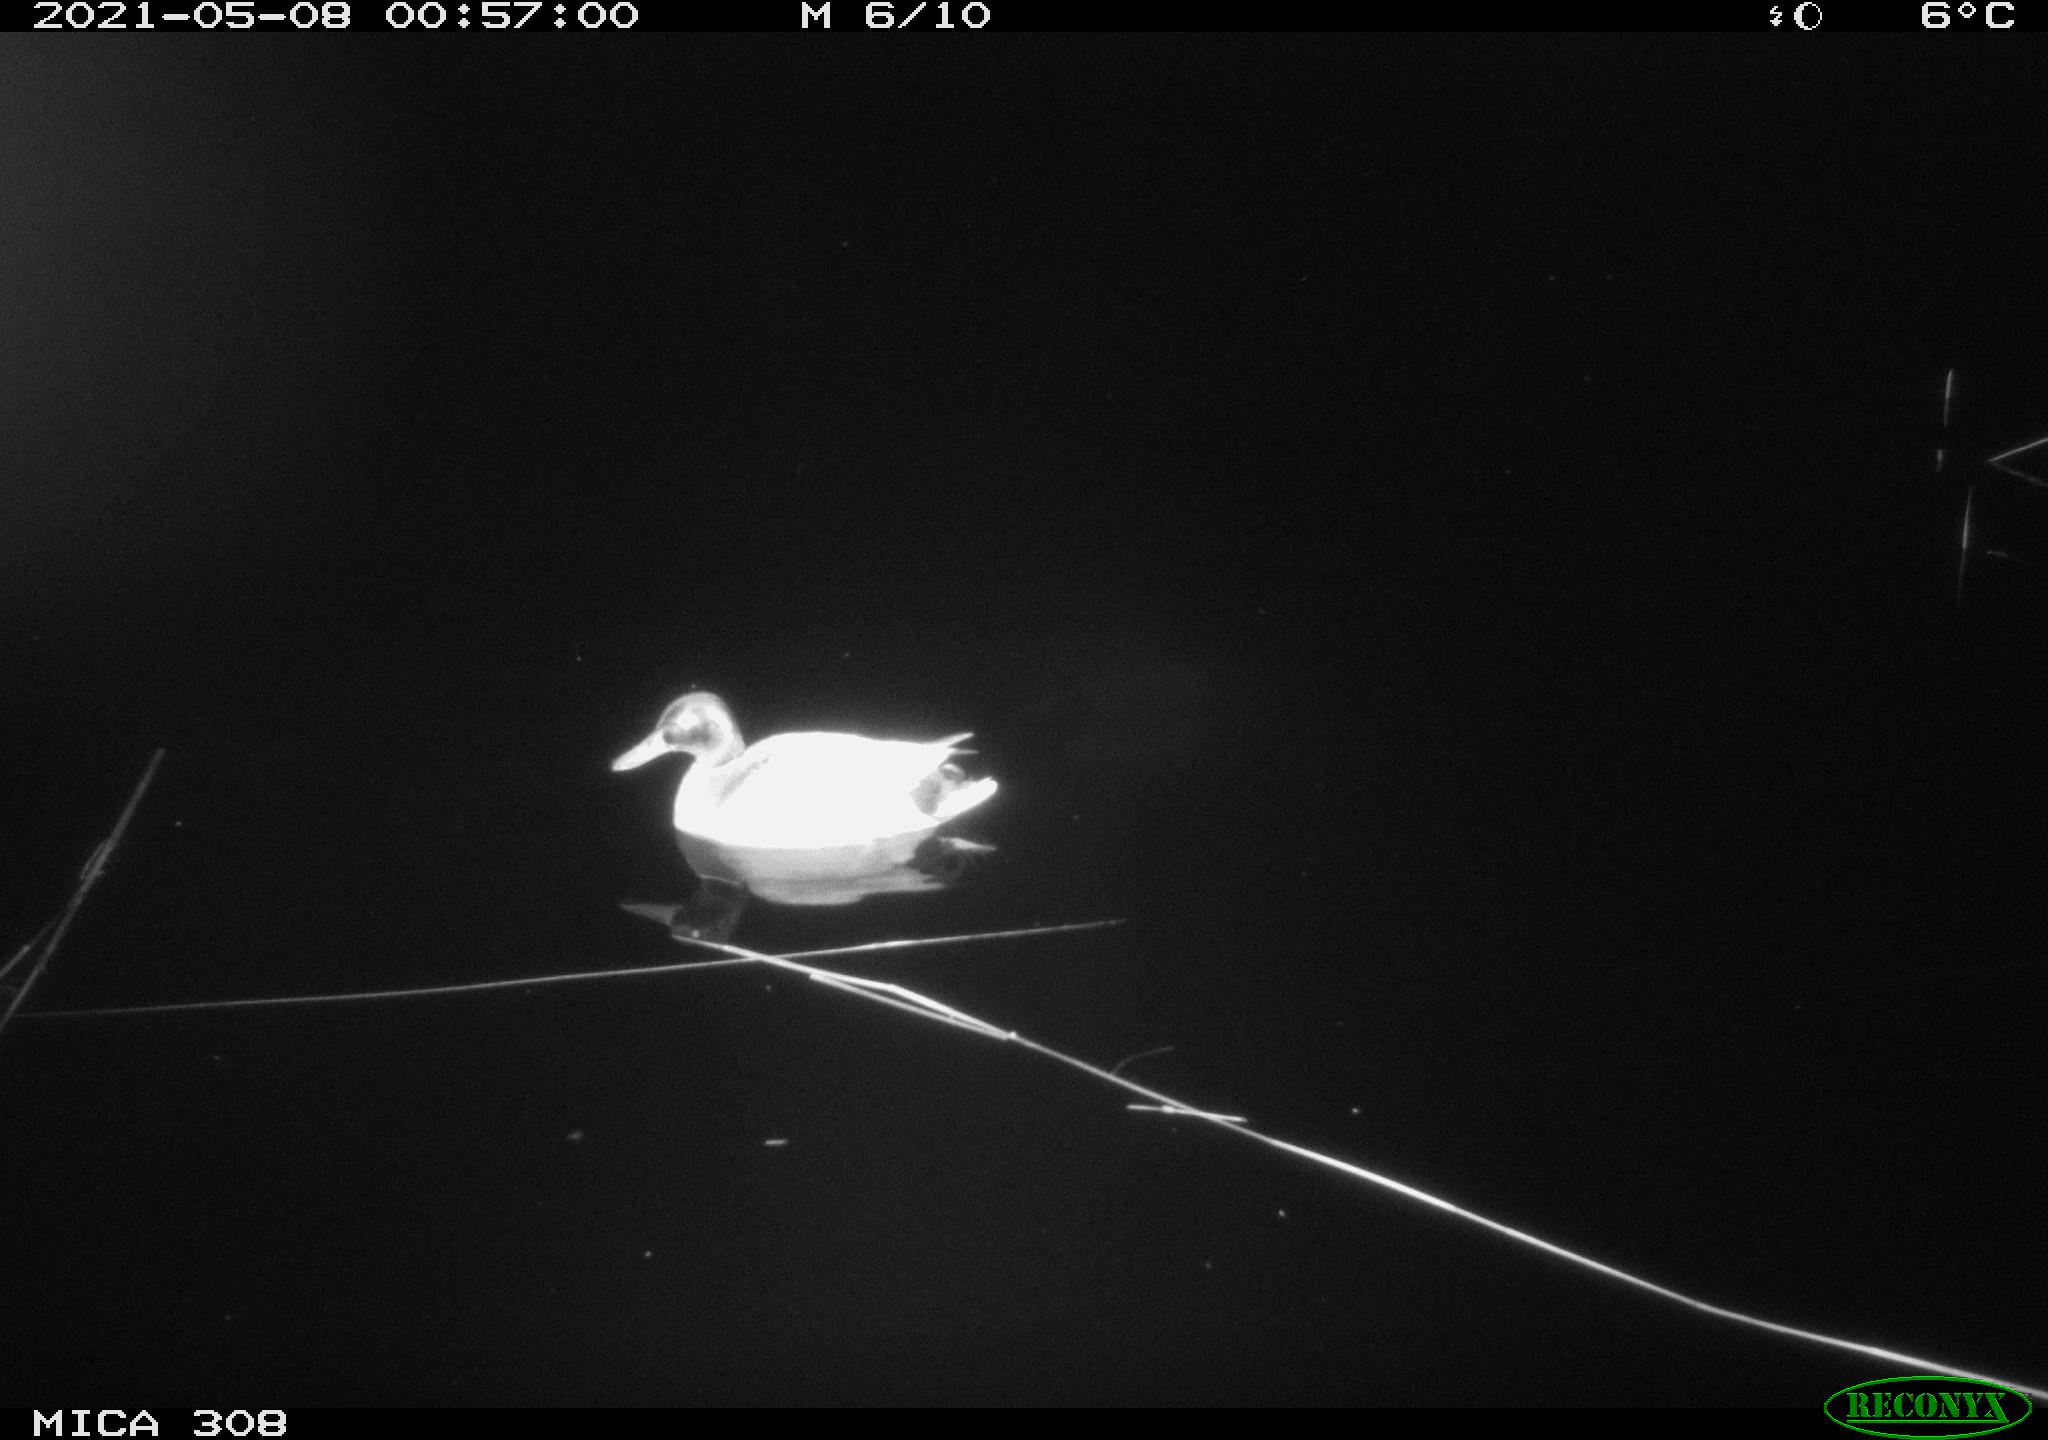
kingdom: Animalia
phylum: Chordata
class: Aves
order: Gruiformes
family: Rallidae
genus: Gallinula
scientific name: Gallinula chloropus
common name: Common moorhen
